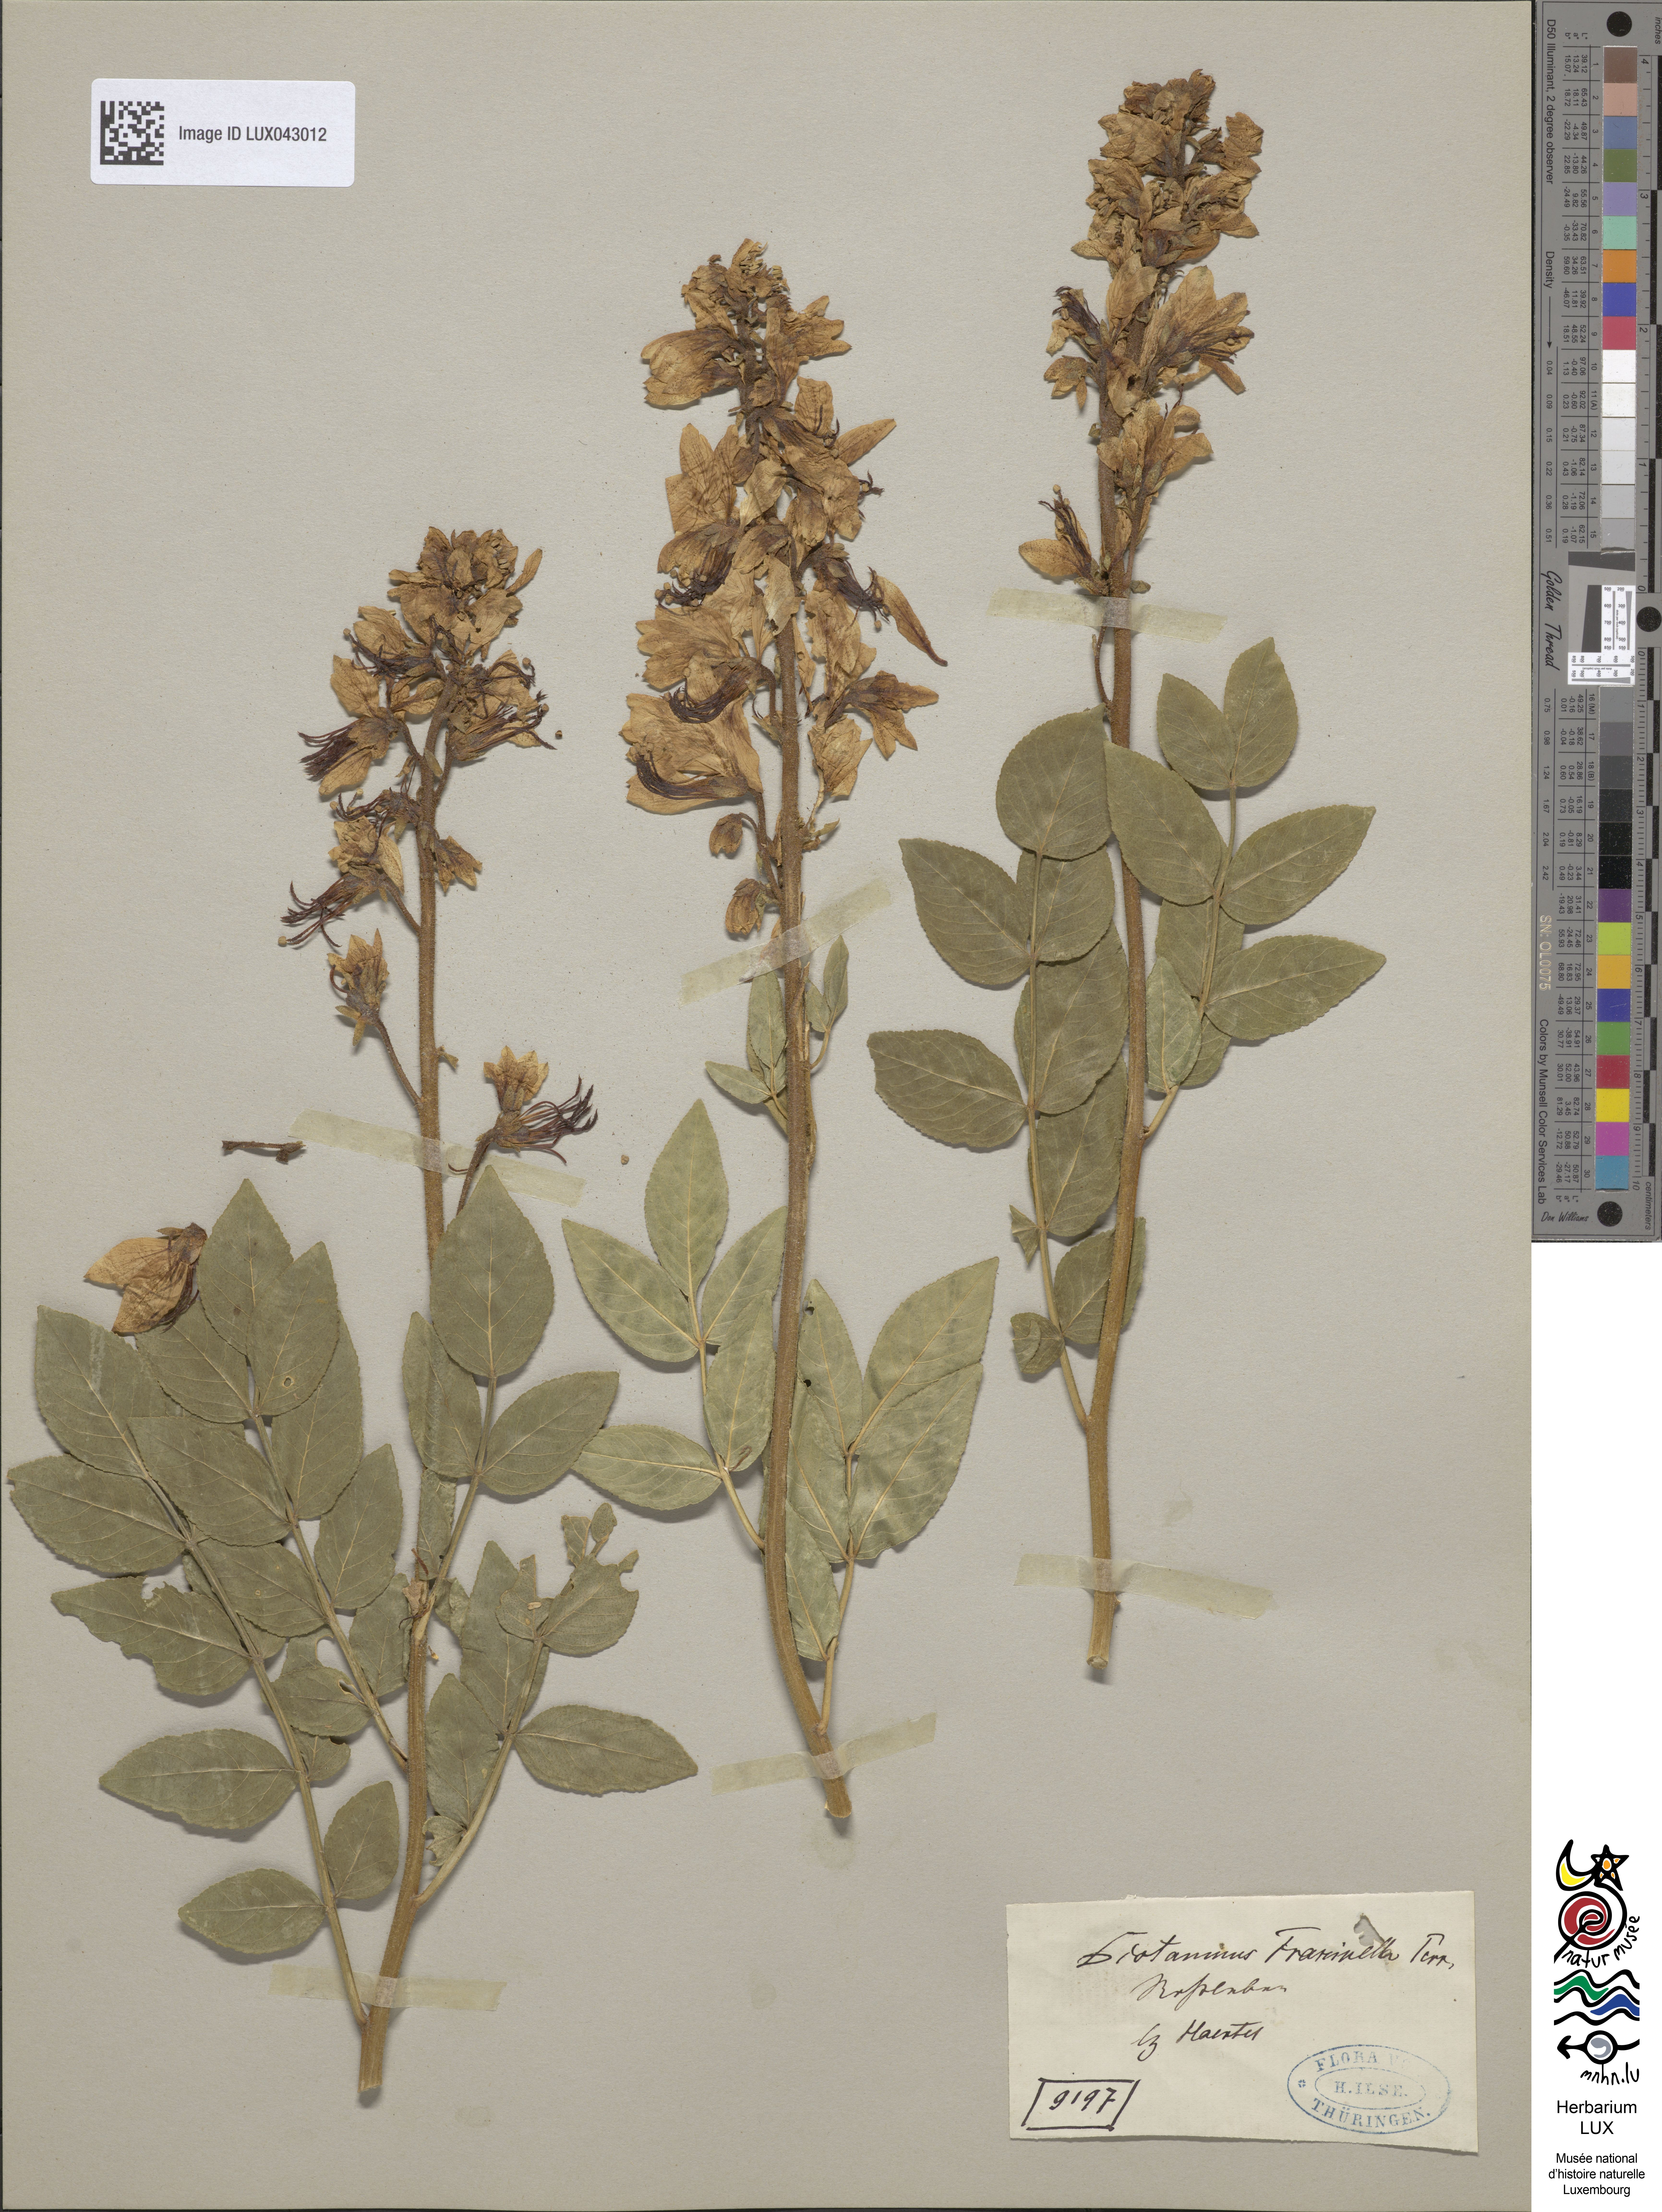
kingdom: Plantae
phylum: Tracheophyta
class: Magnoliopsida
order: Sapindales
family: Rutaceae
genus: Dictamnus
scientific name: Dictamnus albus
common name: Gasplant
